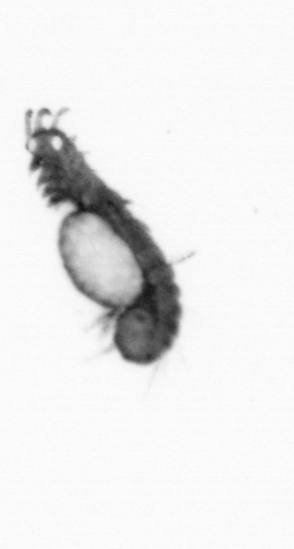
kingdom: Animalia
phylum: Annelida
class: Polychaeta
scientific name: Polychaeta
